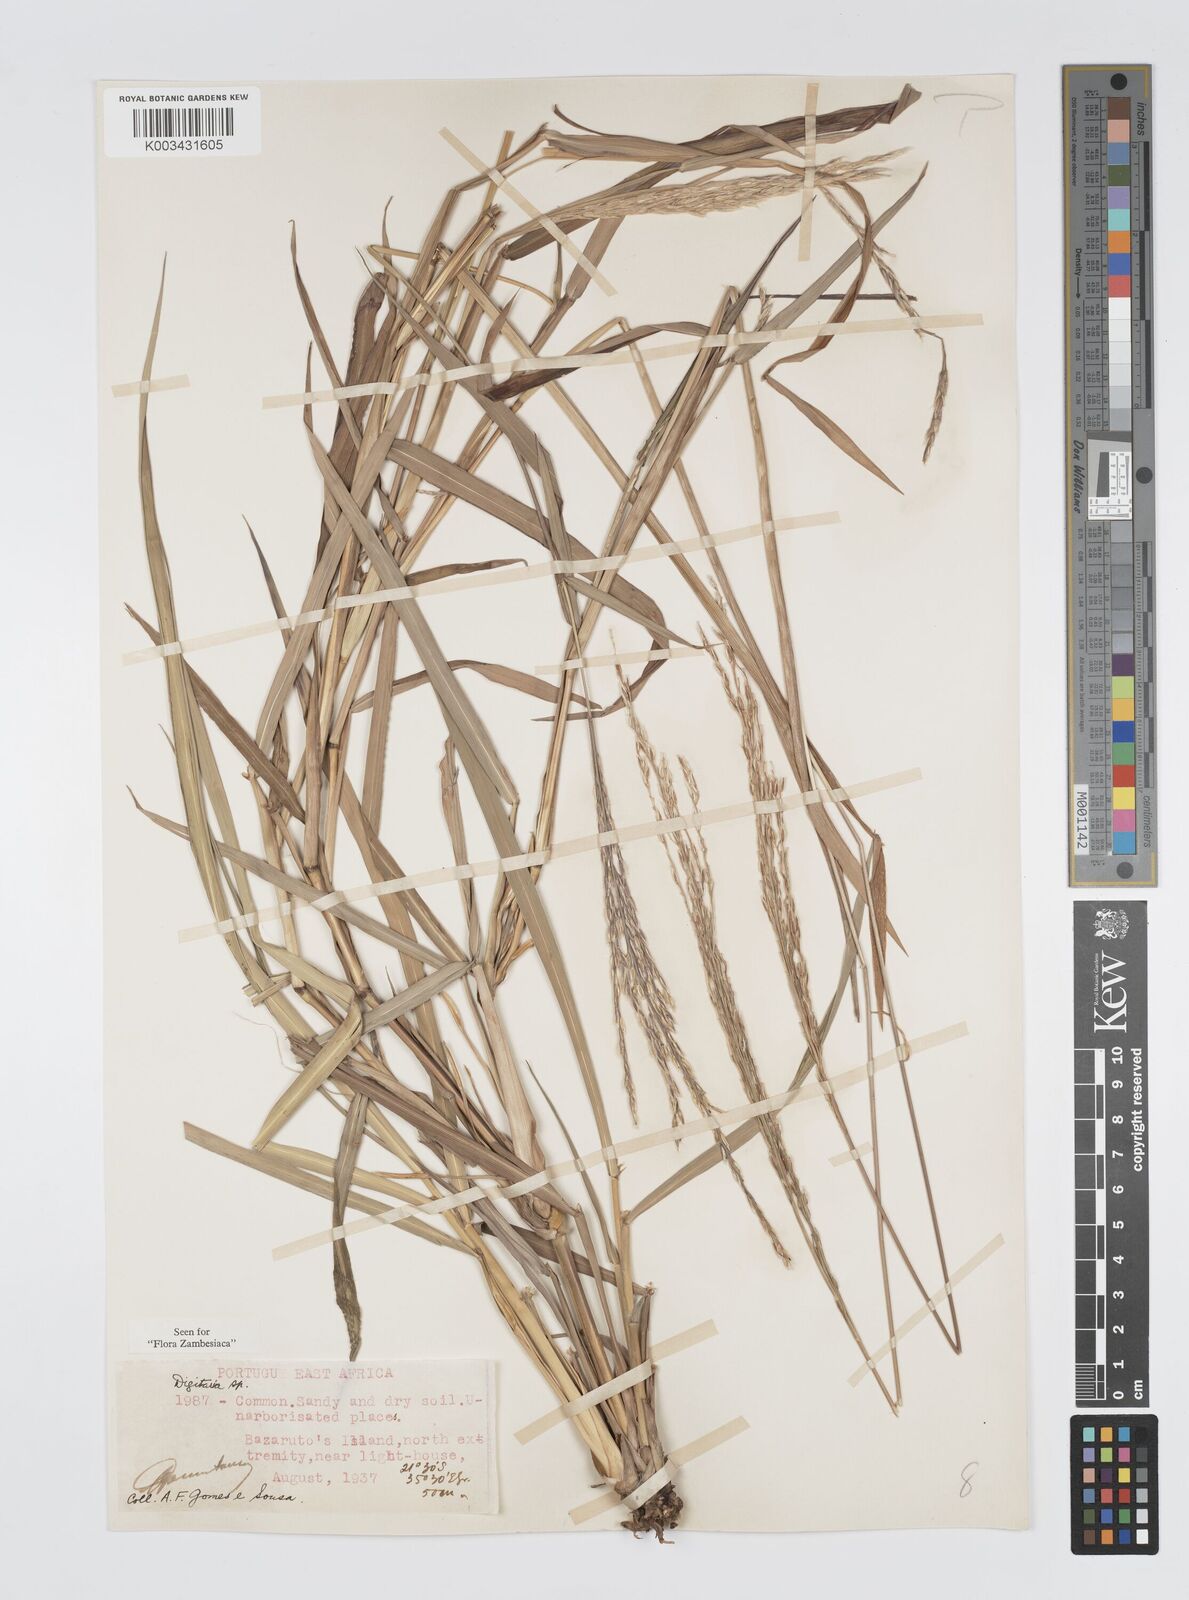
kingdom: Plantae
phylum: Tracheophyta
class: Liliopsida
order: Poales
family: Poaceae
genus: Digitaria
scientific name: Digitaria gymnostachys
